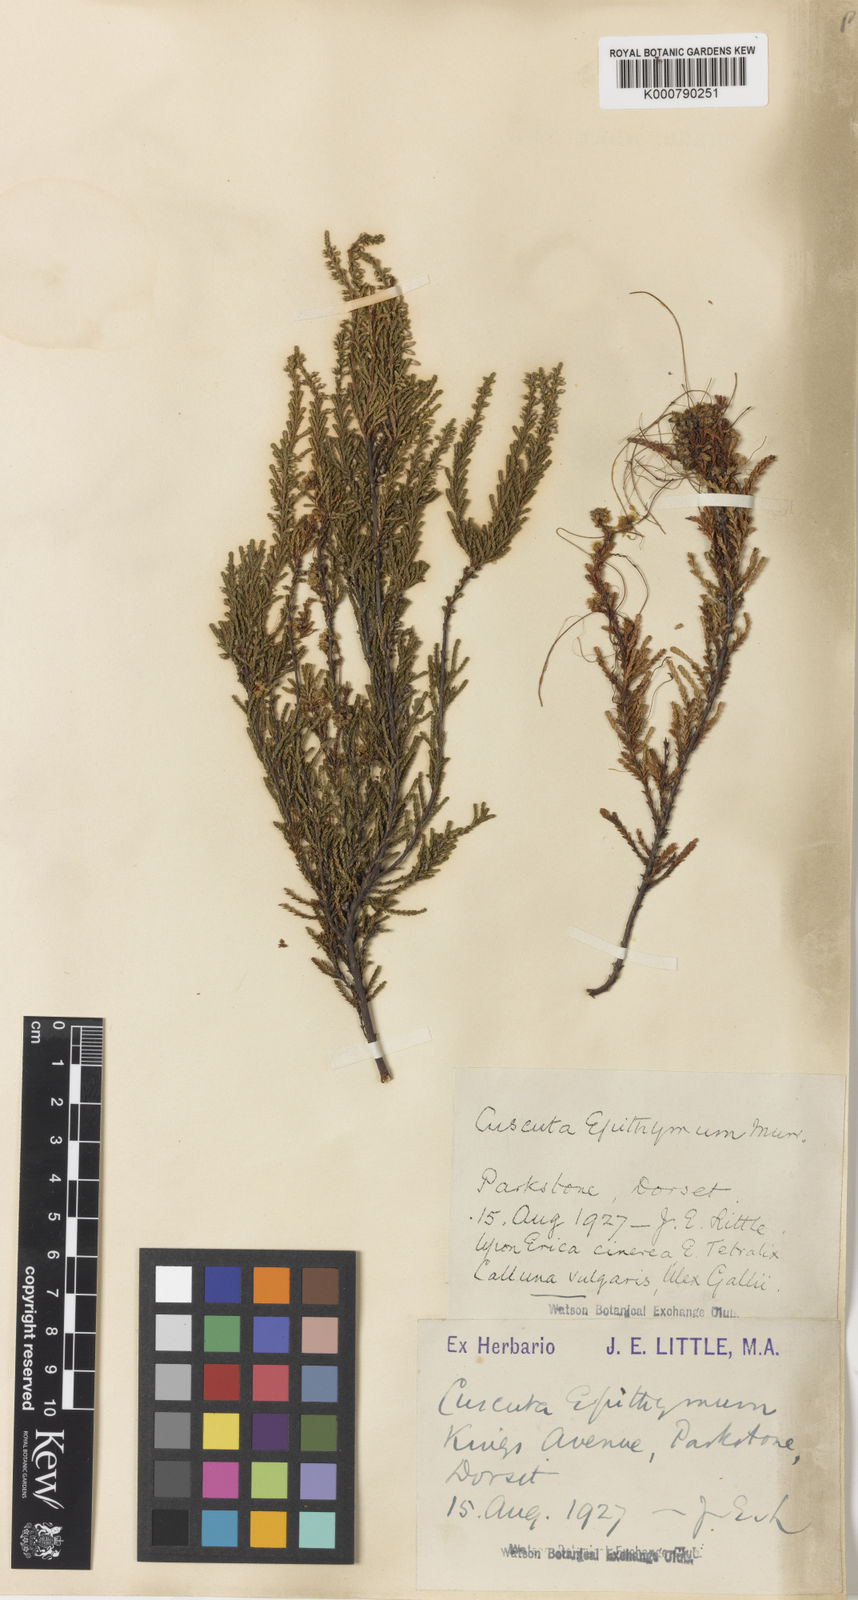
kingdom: Plantae
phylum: Tracheophyta
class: Magnoliopsida
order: Solanales
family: Convolvulaceae
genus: Cuscuta
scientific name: Cuscuta epithymum
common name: Clover dodder
